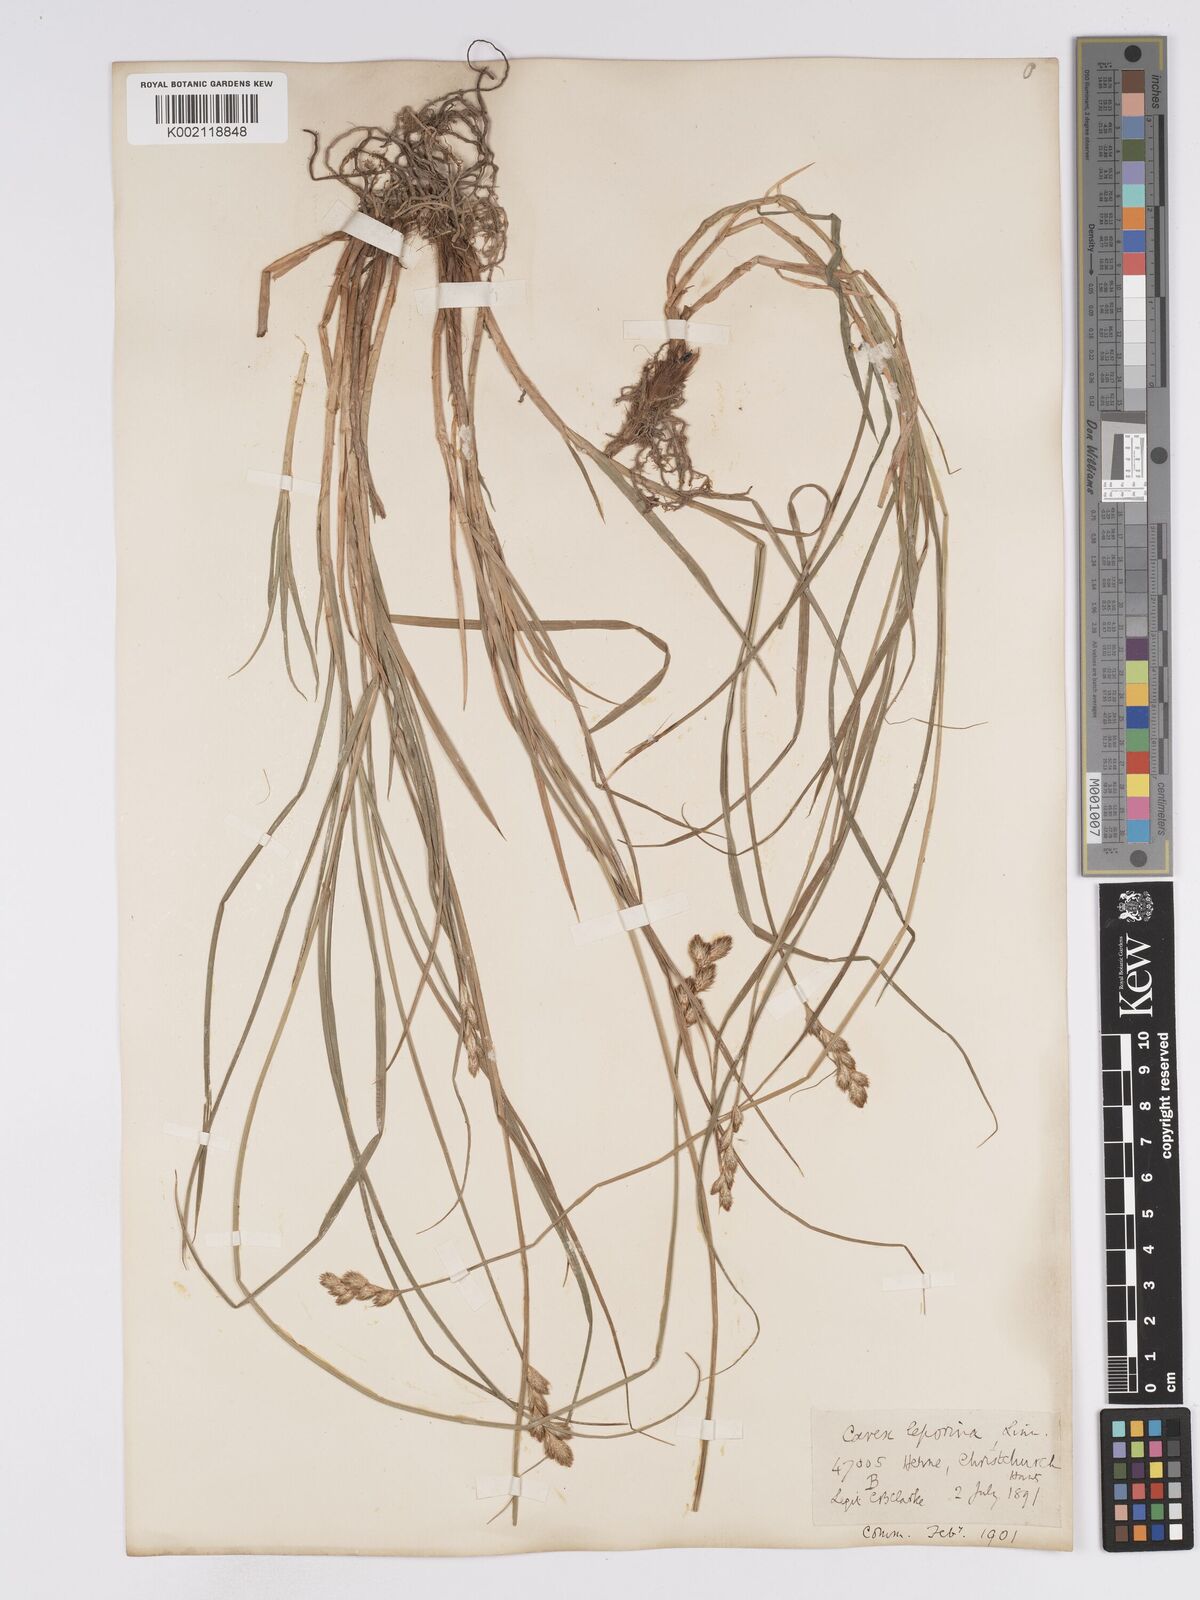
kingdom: Plantae
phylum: Tracheophyta
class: Liliopsida
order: Poales
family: Cyperaceae
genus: Carex
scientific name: Carex leporina
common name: Oval sedge
